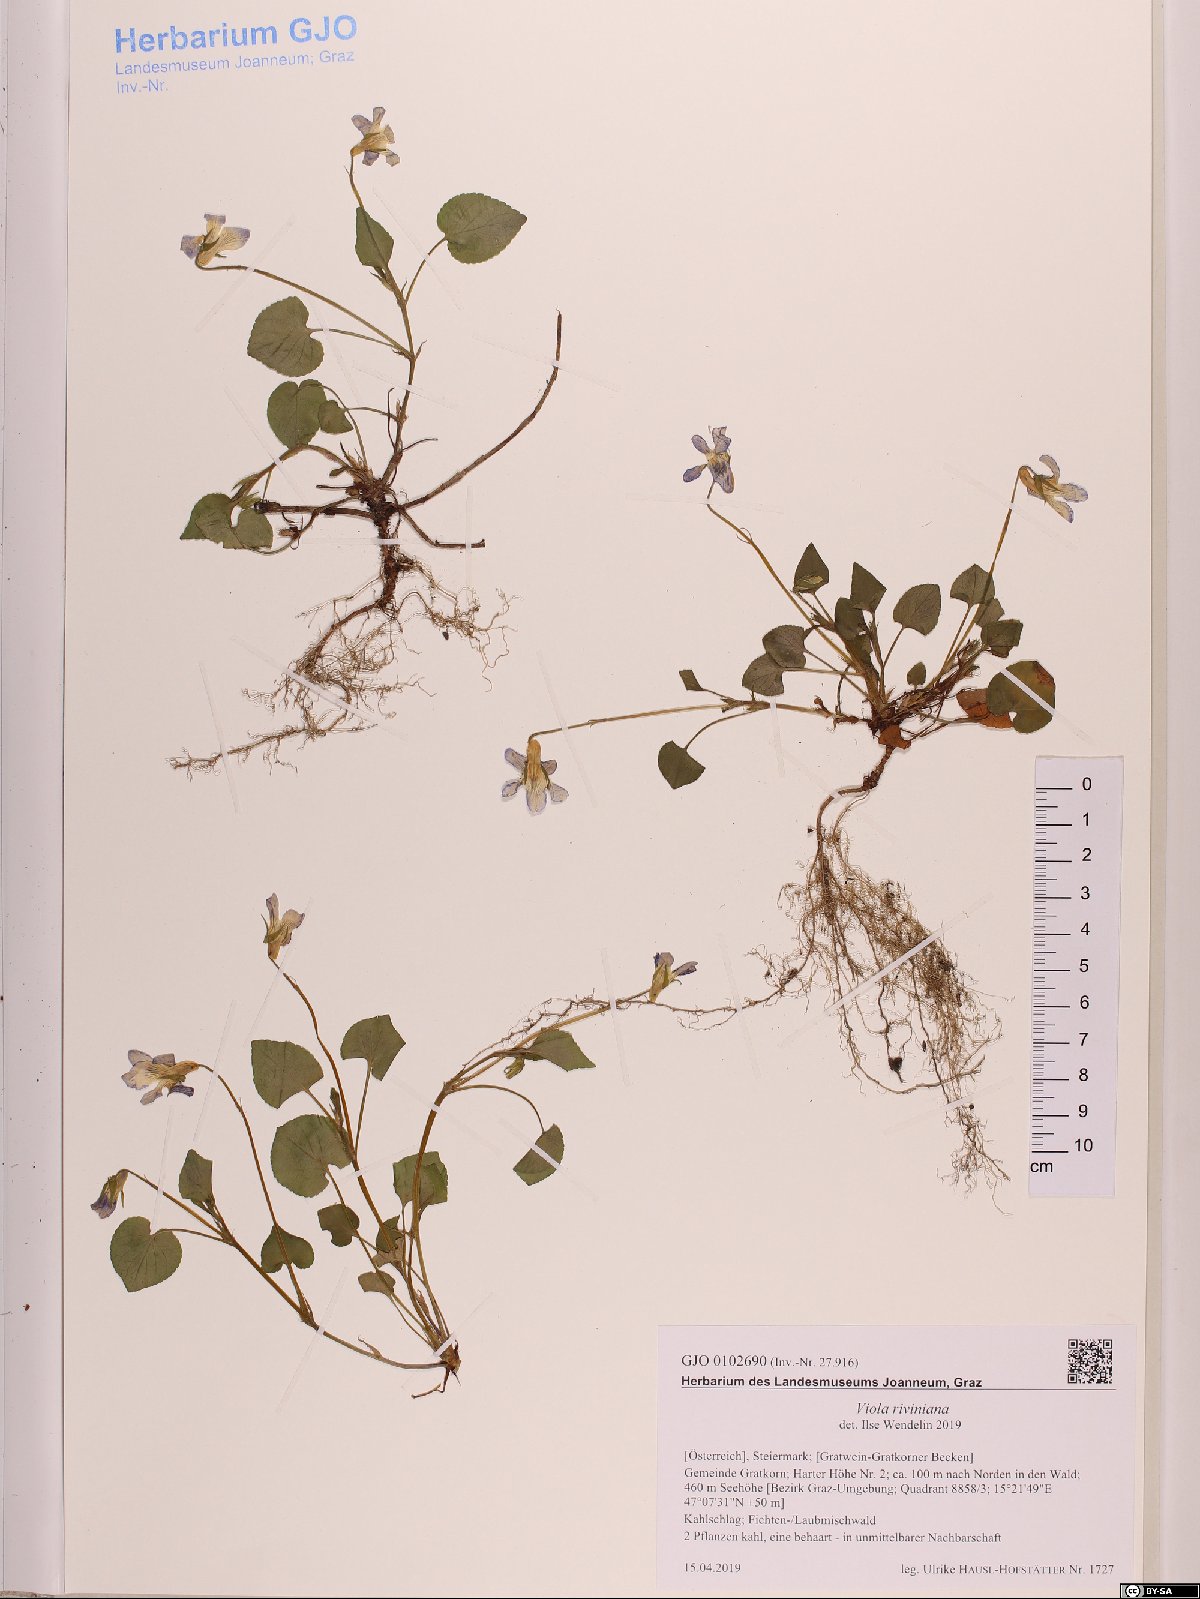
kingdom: Plantae
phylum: Tracheophyta
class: Magnoliopsida
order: Malpighiales
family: Violaceae
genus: Viola
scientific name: Viola riviniana
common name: Common dog-violet
